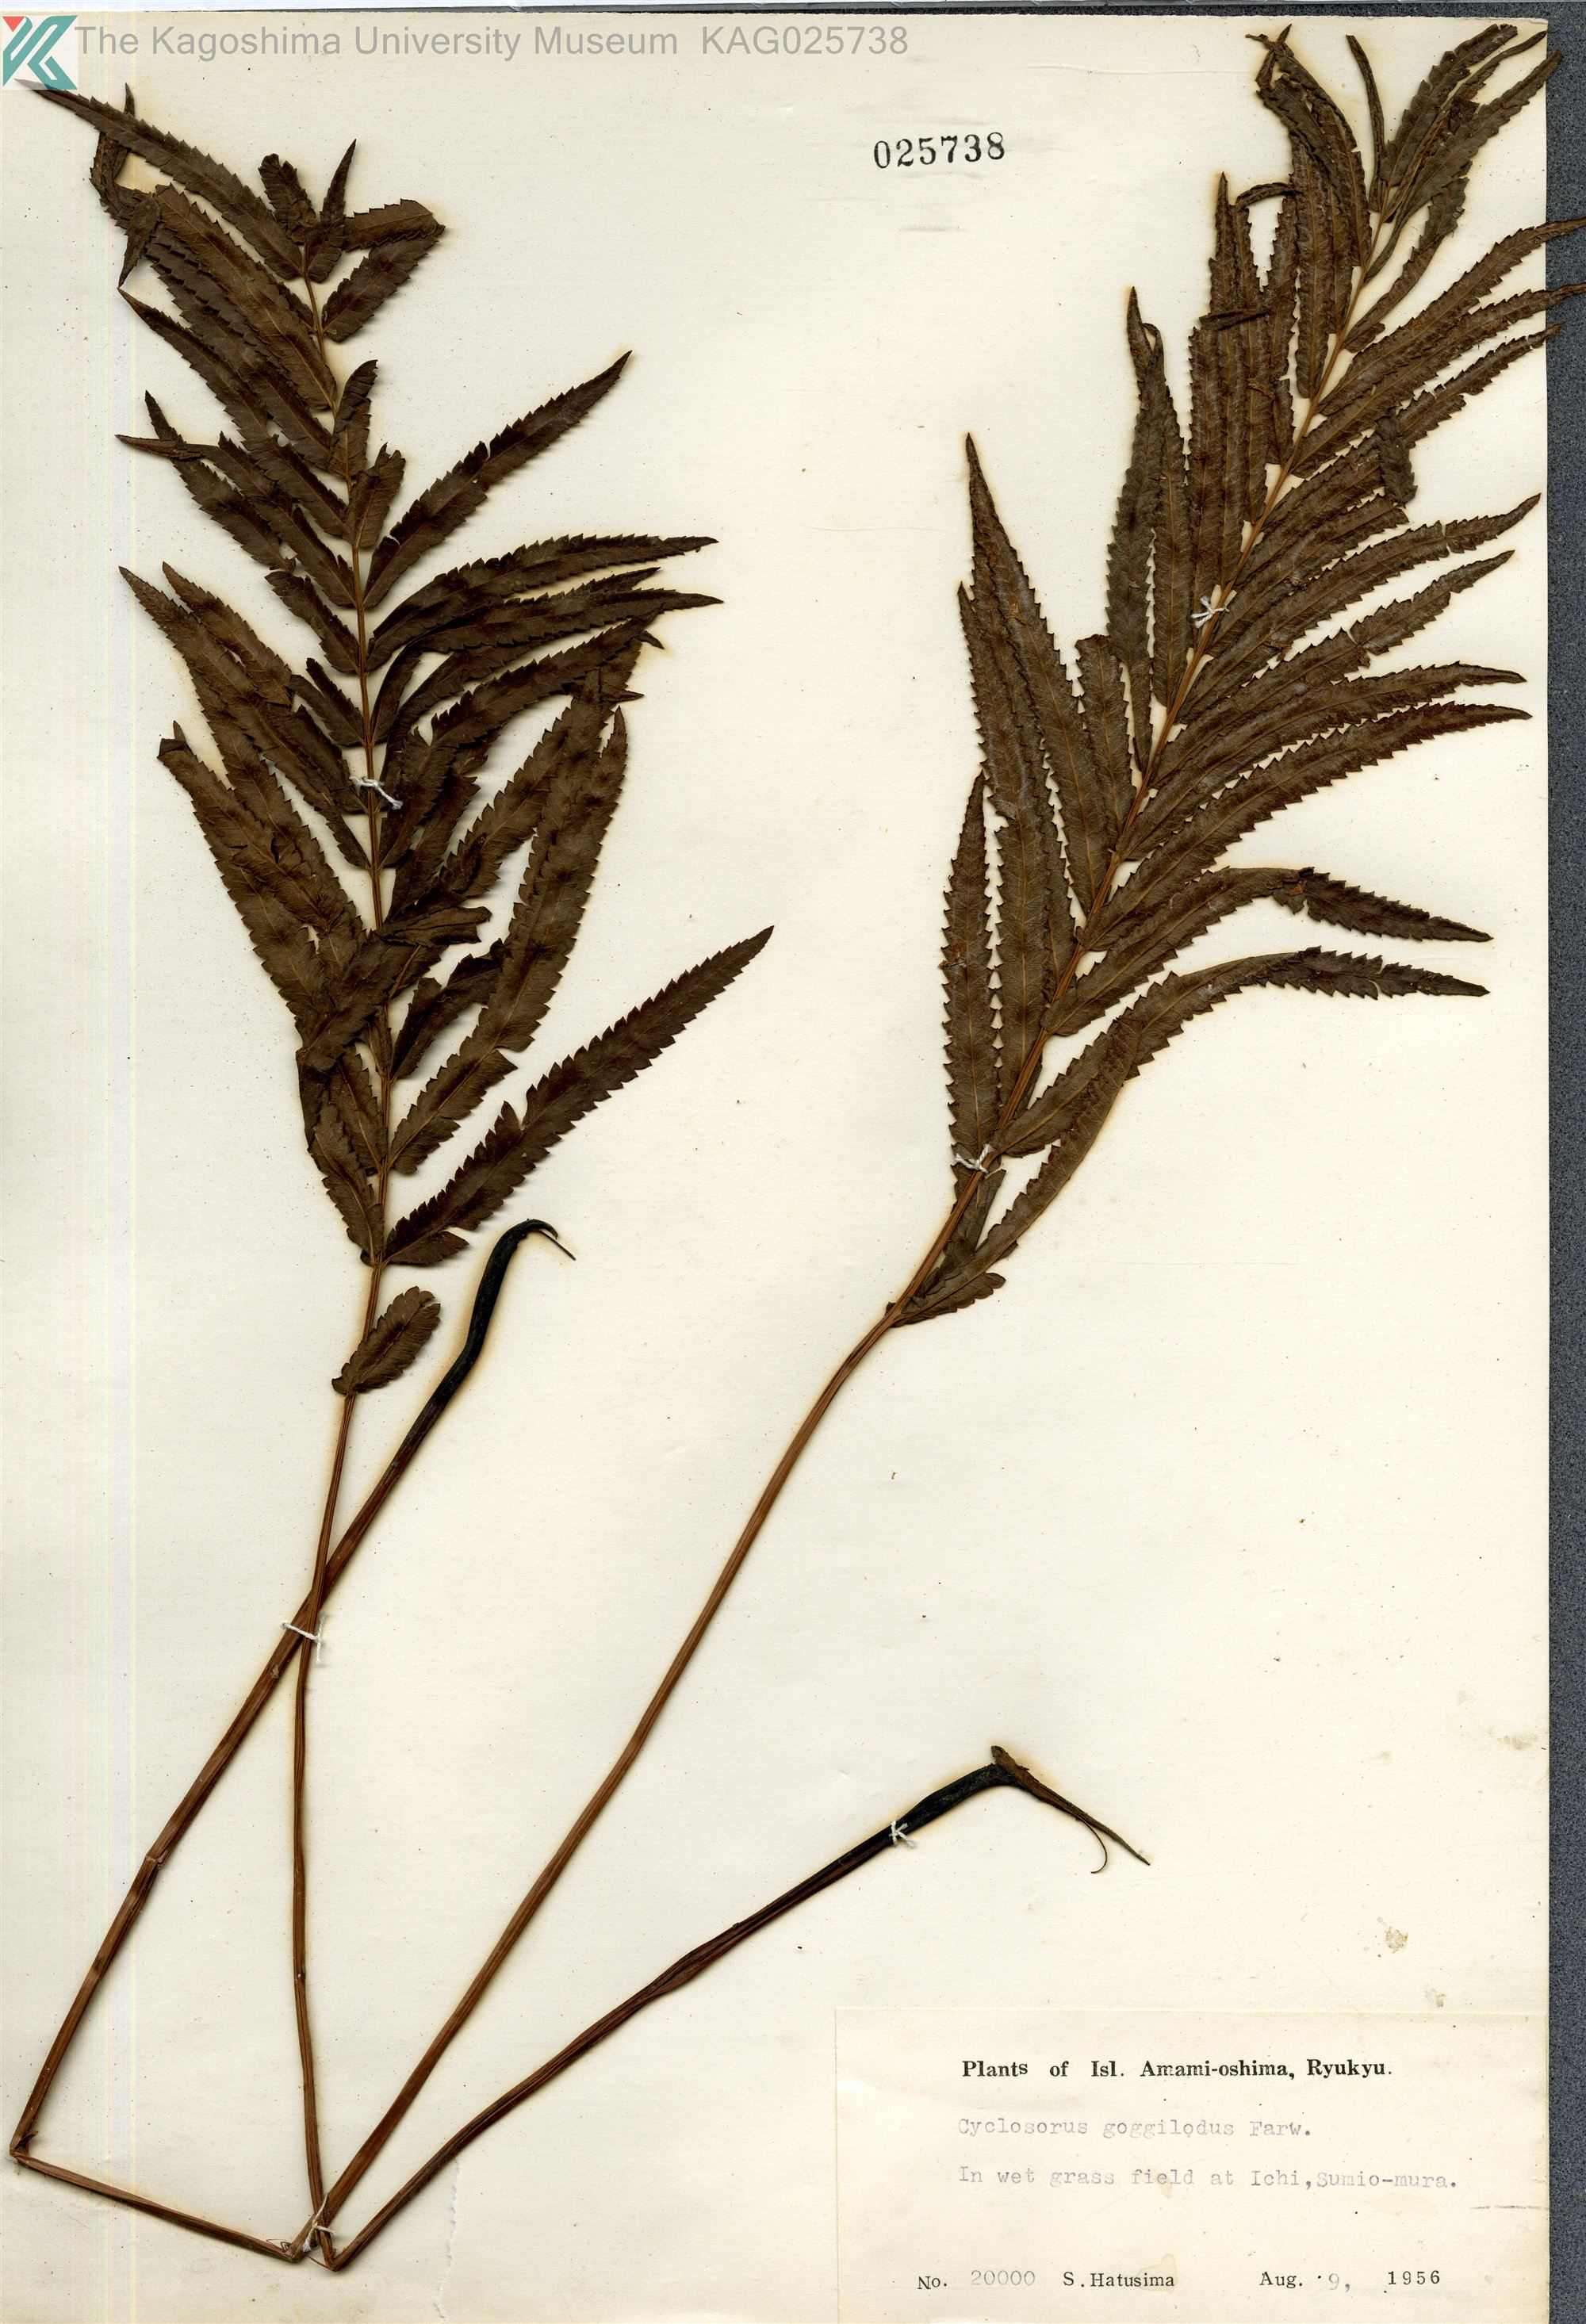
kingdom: Plantae
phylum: Tracheophyta
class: Polypodiopsida
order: Polypodiales
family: Thelypteridaceae
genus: Cyclosorus
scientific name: Cyclosorus interruptus
